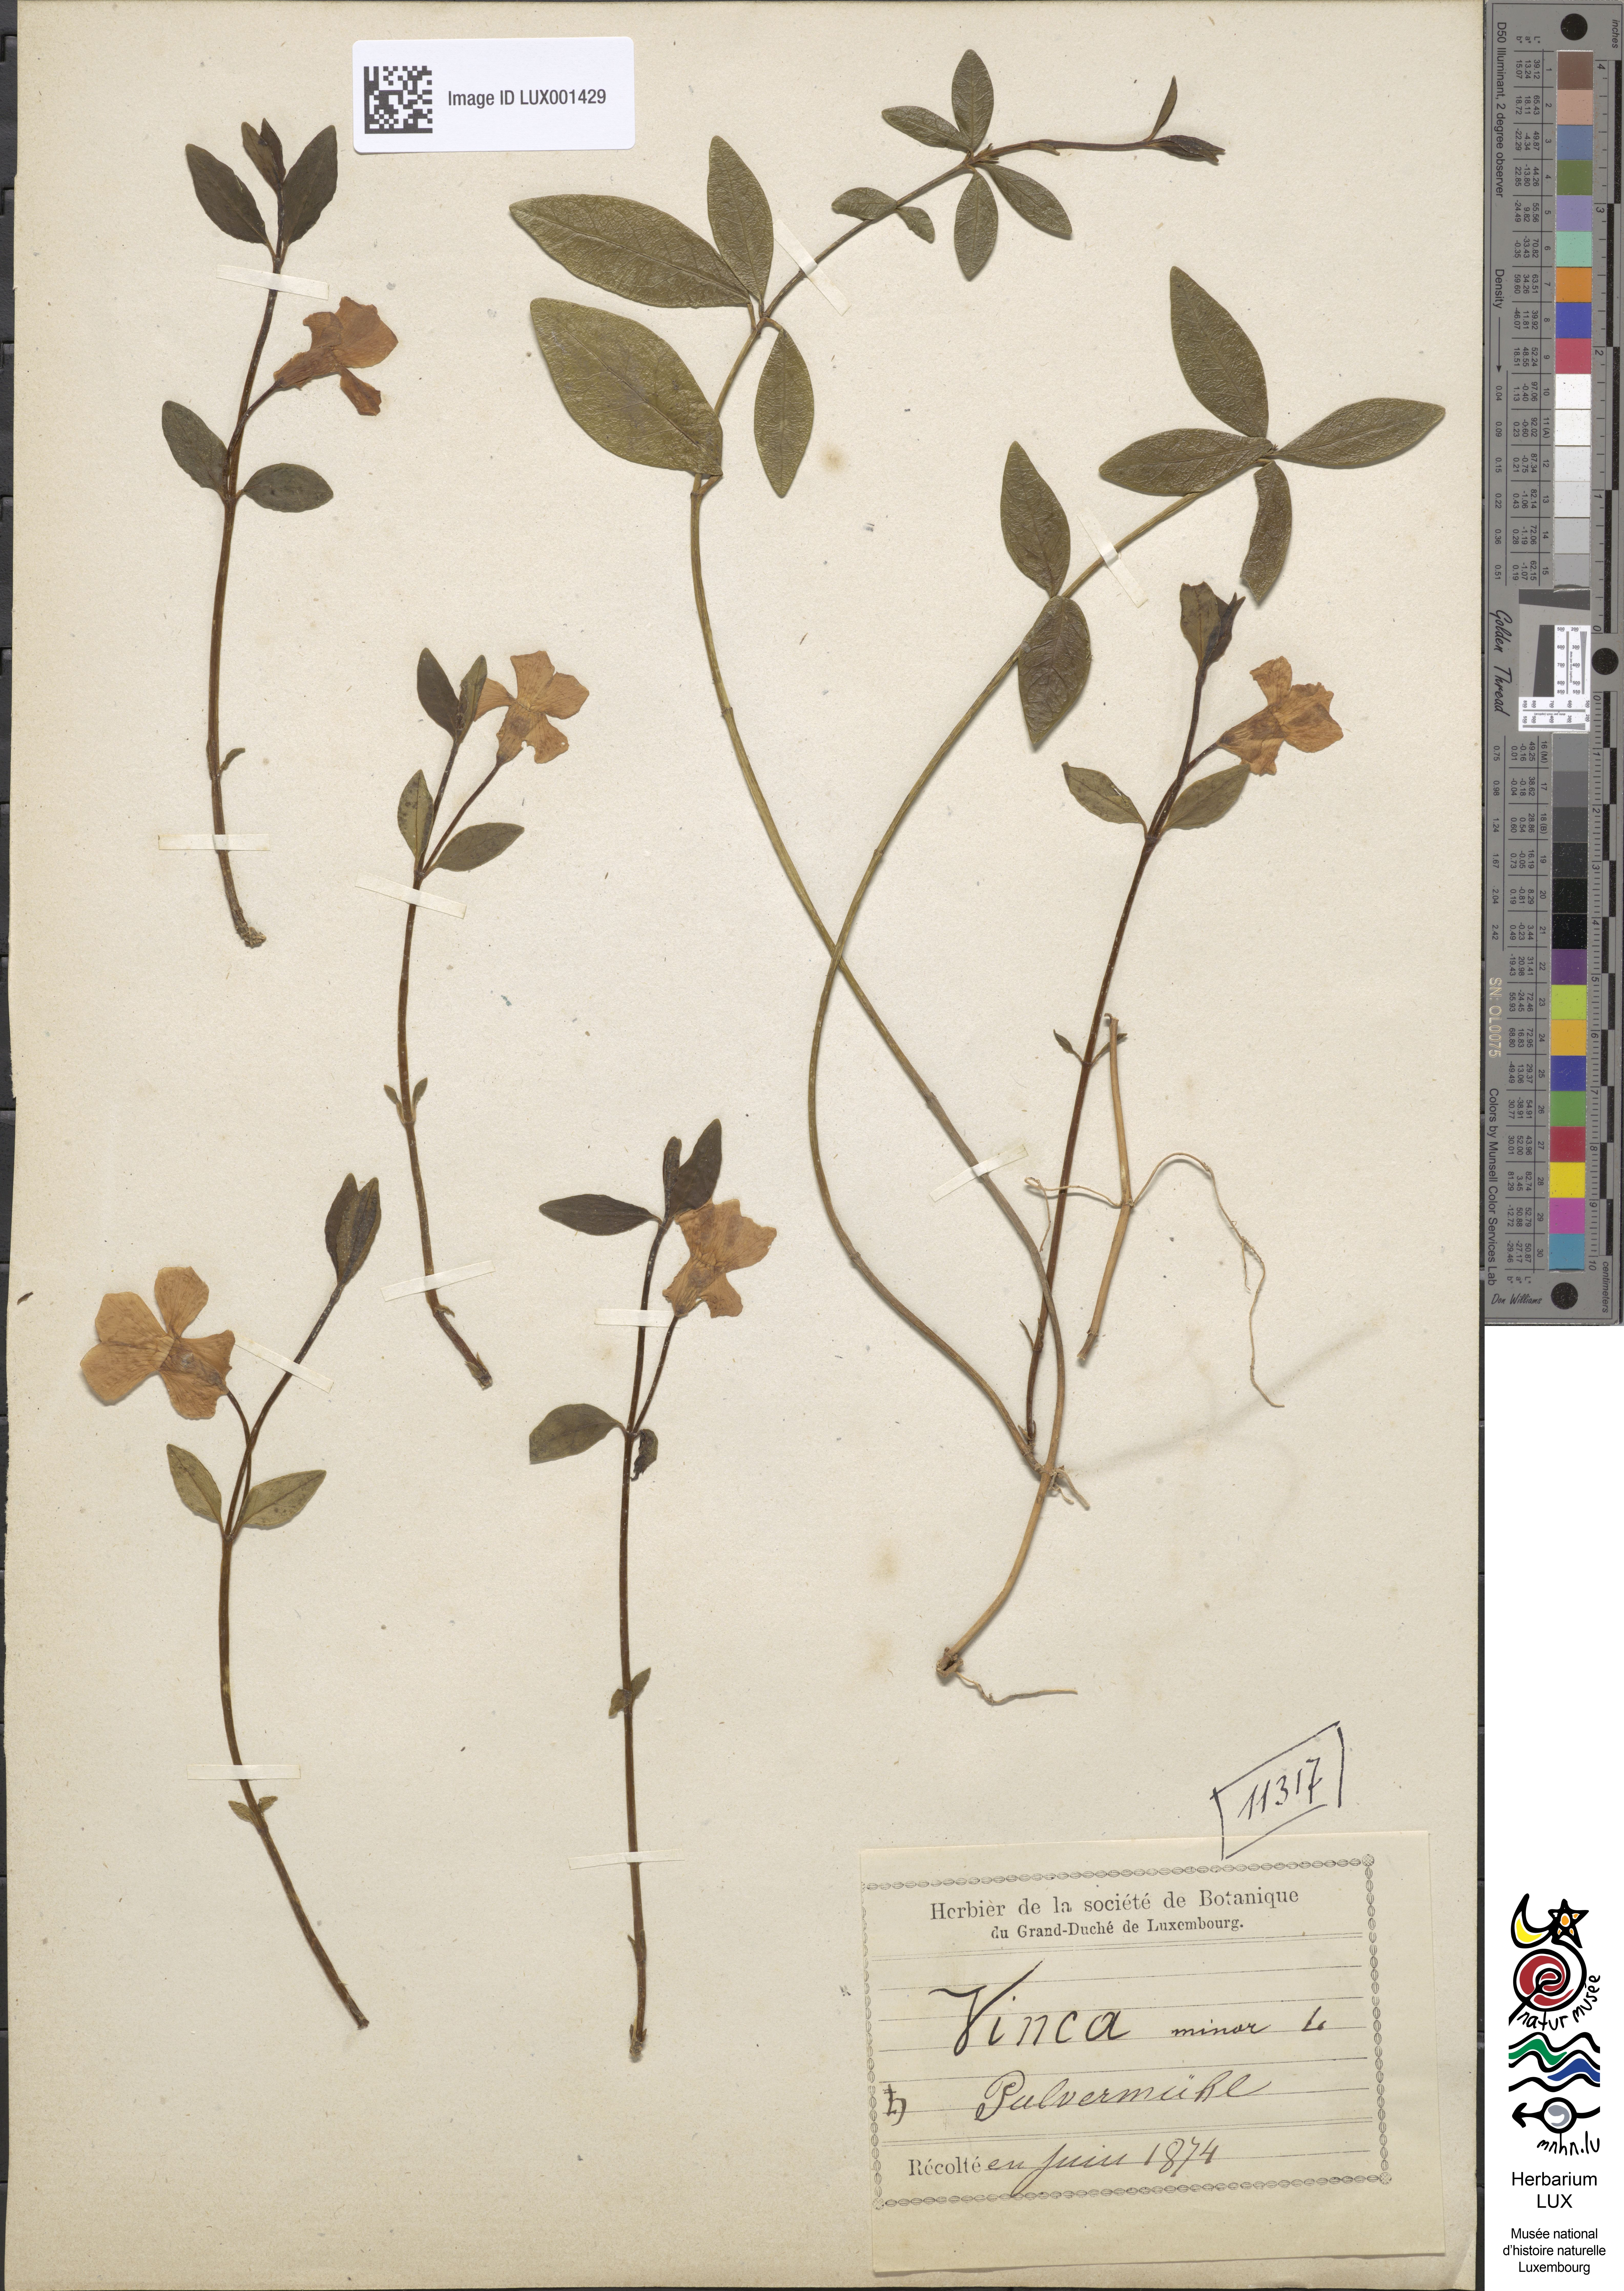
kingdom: Plantae
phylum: Tracheophyta
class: Magnoliopsida
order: Gentianales
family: Apocynaceae
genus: Vinca
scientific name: Vinca minor
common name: Lesser periwinkle
